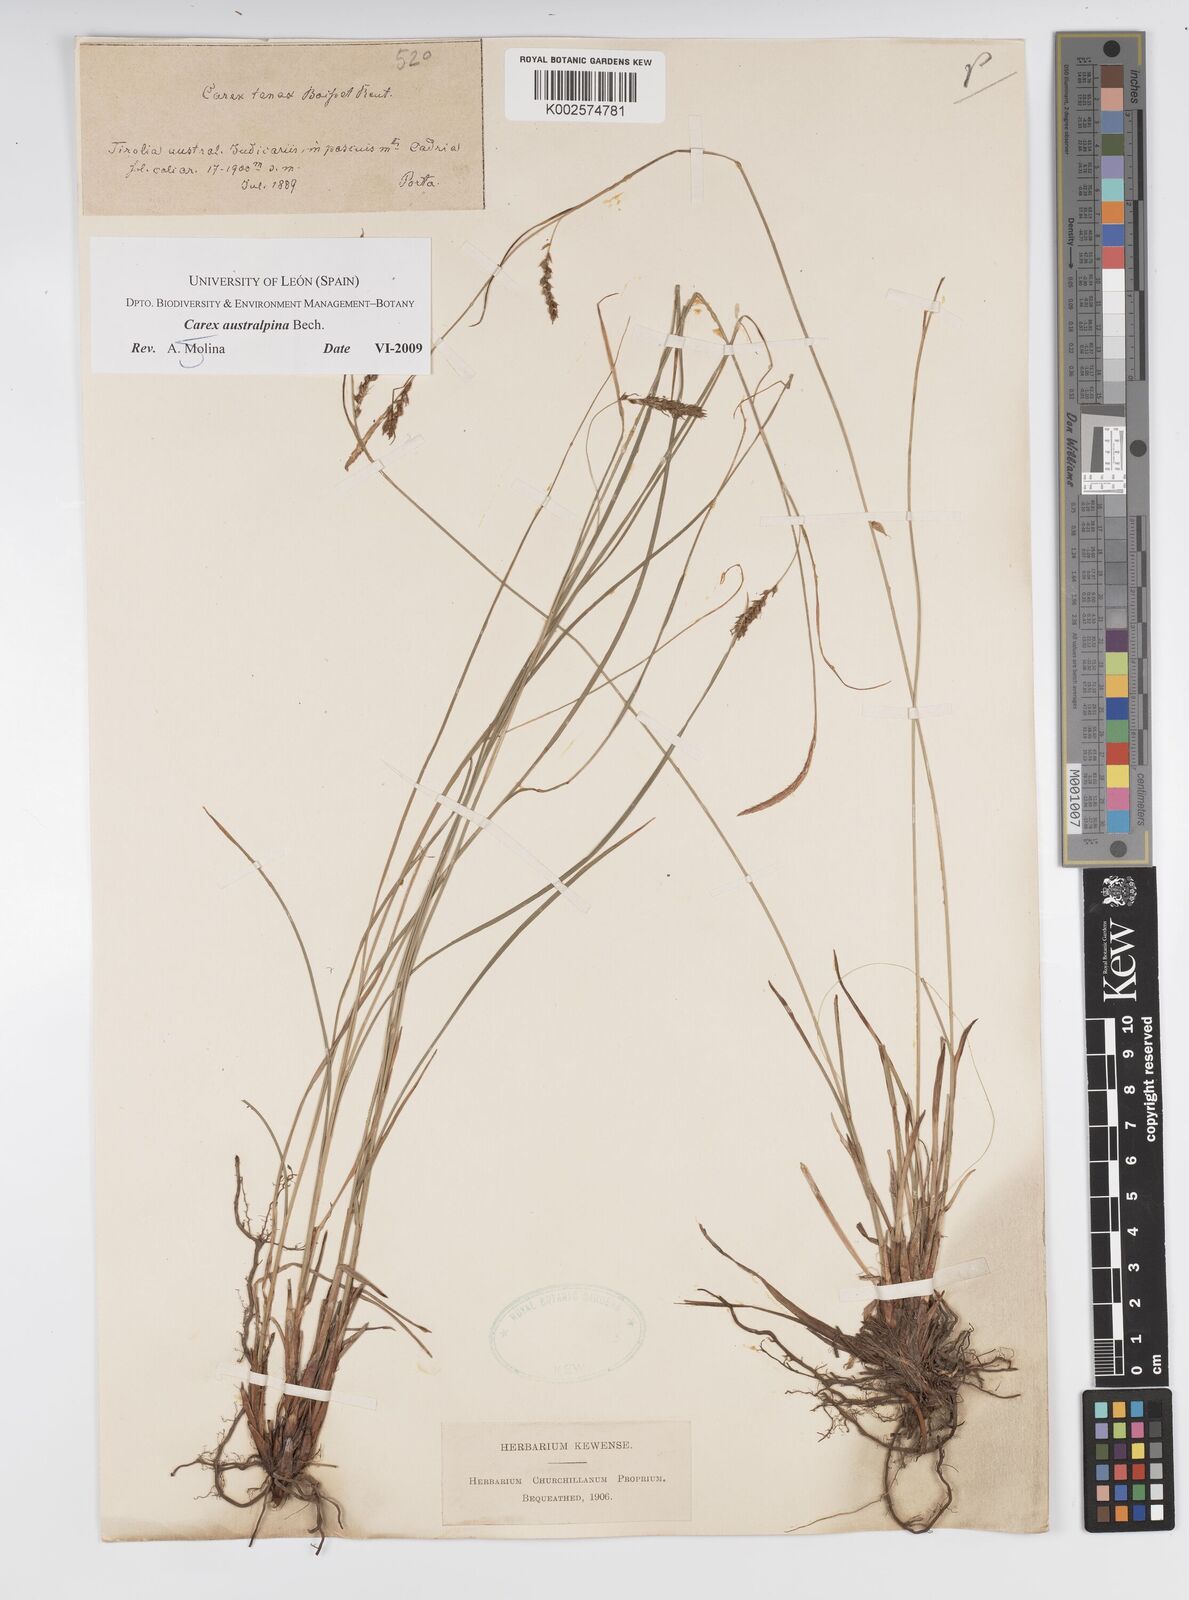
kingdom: Plantae
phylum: Tracheophyta
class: Liliopsida
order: Poales
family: Cyperaceae
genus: Carex
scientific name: Carex austroalpina
